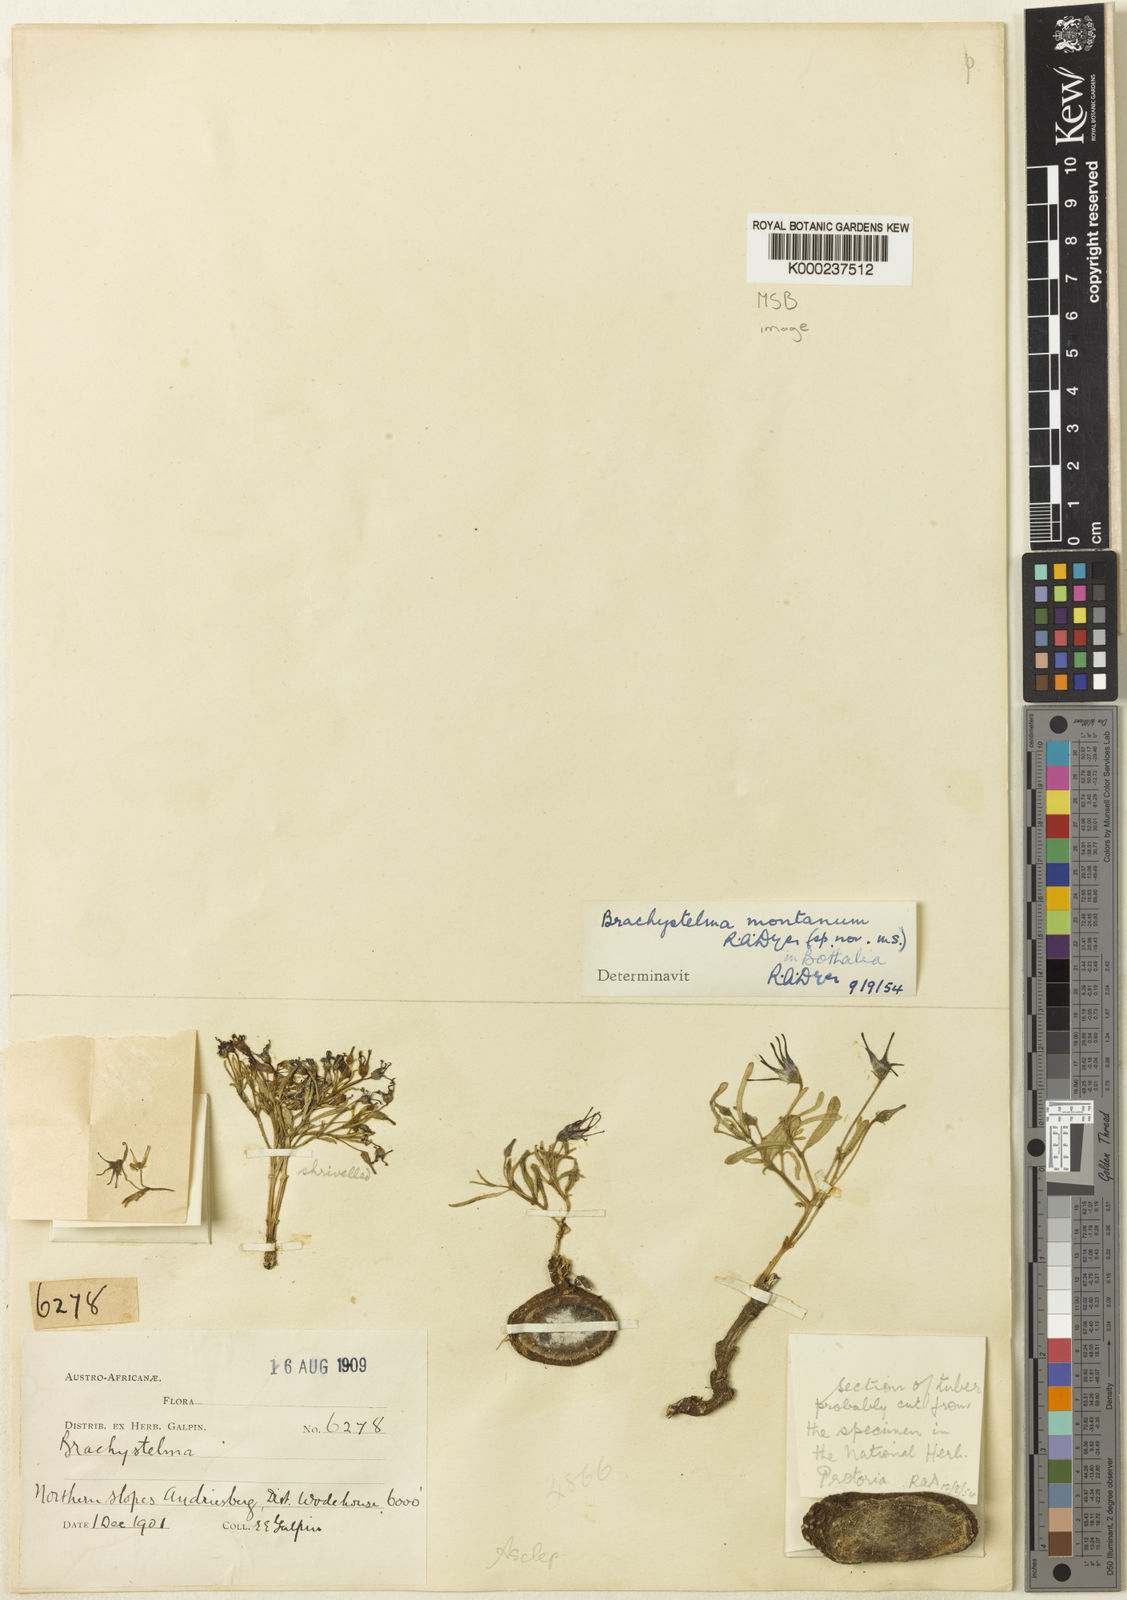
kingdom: Plantae
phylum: Tracheophyta
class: Magnoliopsida
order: Gentianales
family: Apocynaceae
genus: Ceropegia
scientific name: Ceropegia montiphila
